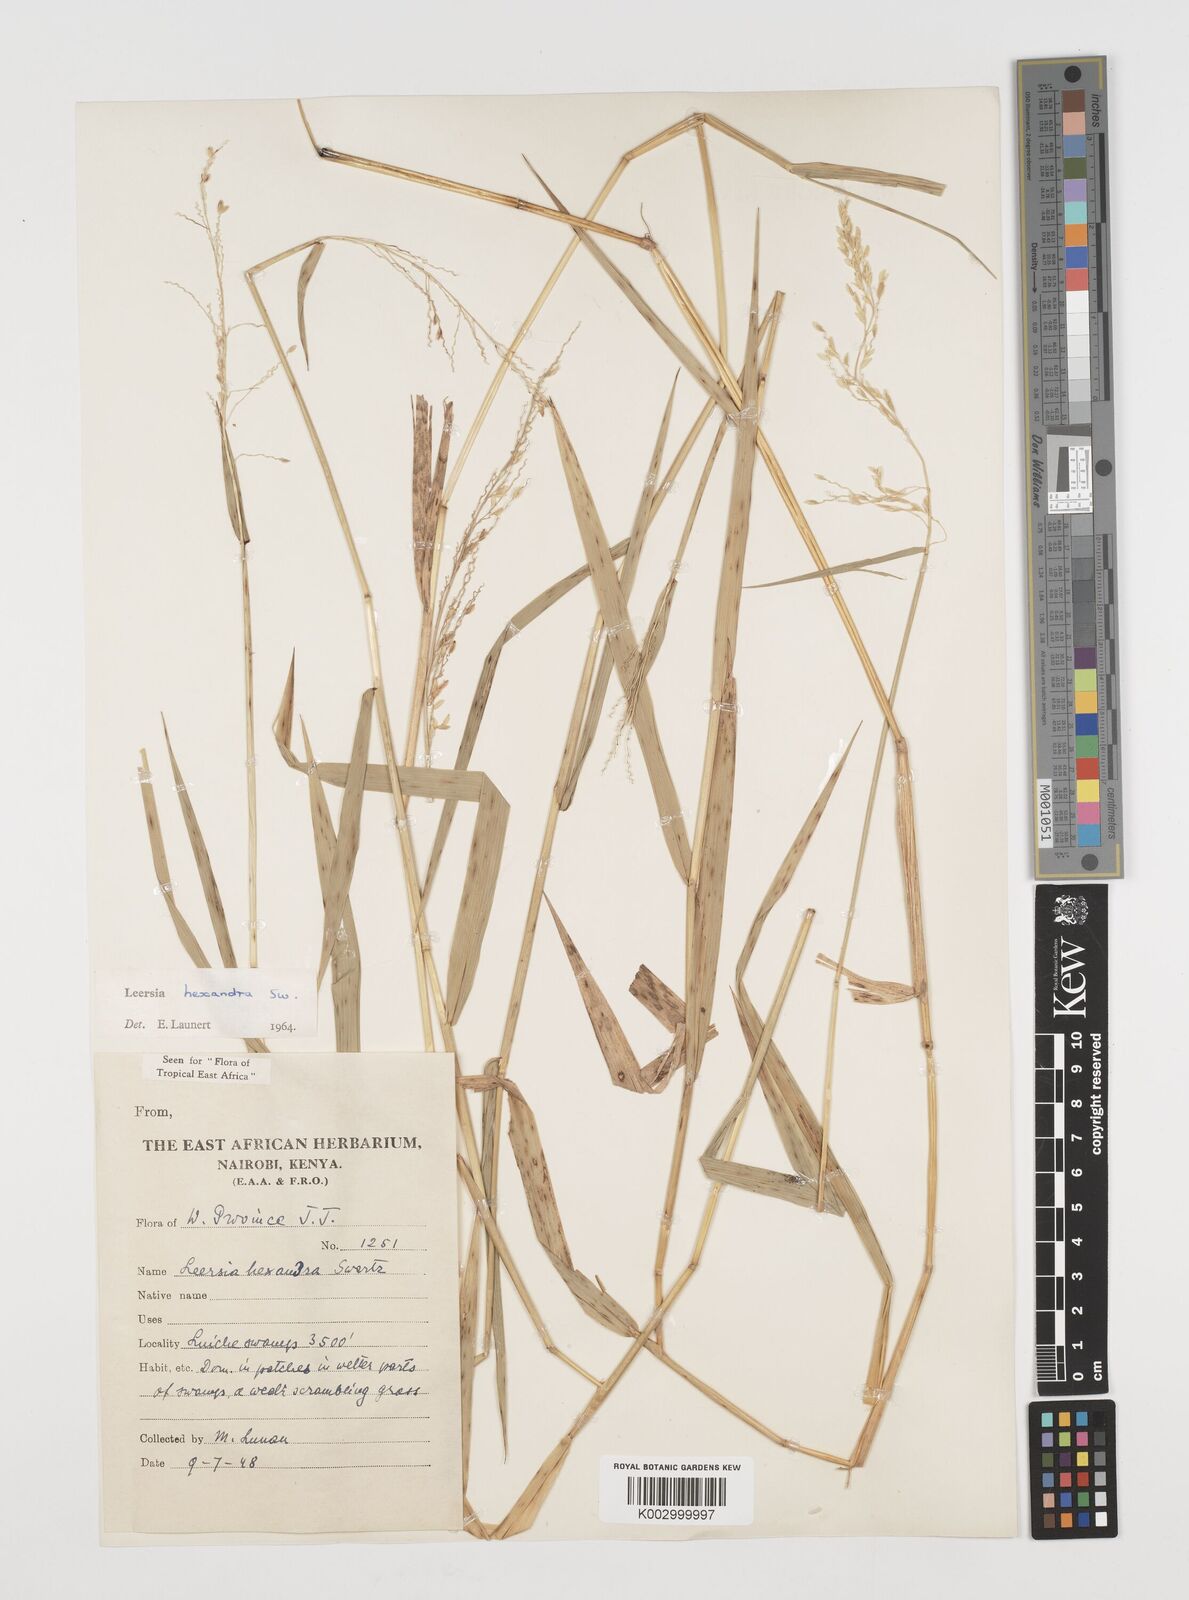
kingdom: Plantae
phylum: Tracheophyta
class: Liliopsida
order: Poales
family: Poaceae
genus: Leersia
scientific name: Leersia hexandra
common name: Southern cut grass
